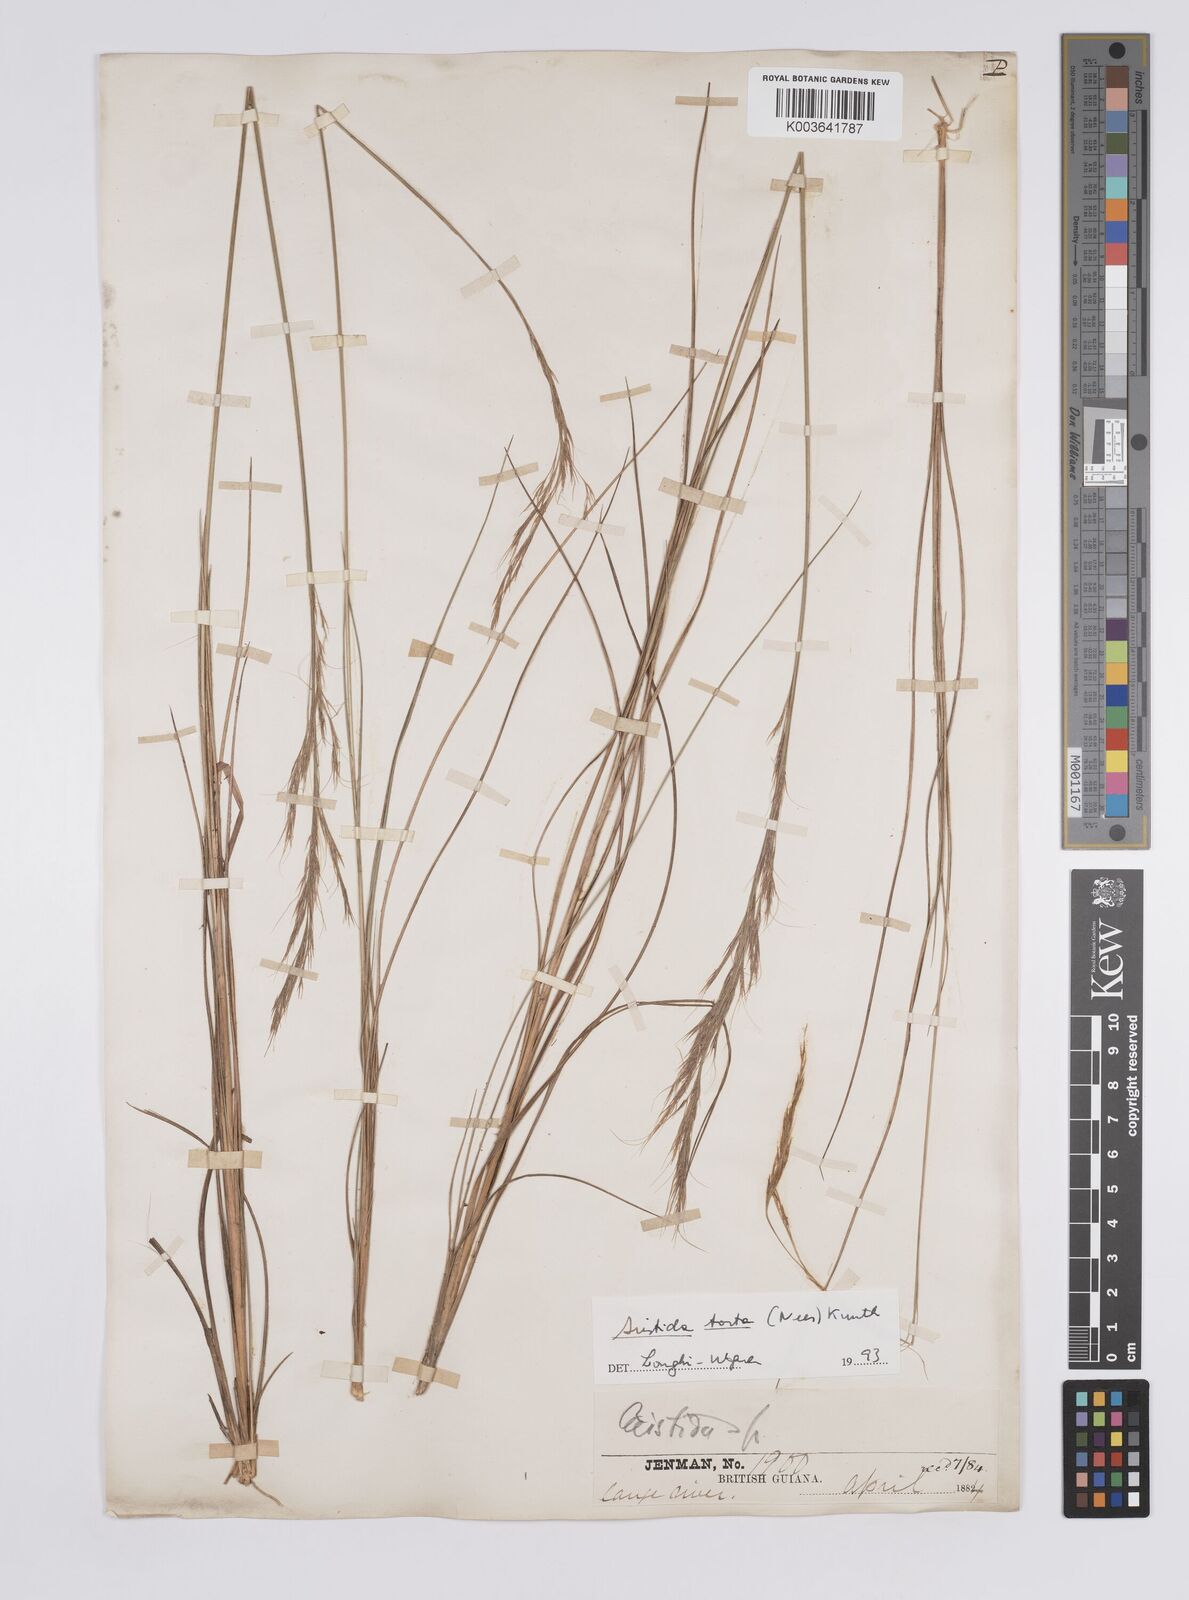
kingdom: Plantae
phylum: Tracheophyta
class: Liliopsida
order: Poales
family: Poaceae
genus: Aristida
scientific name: Aristida torta
